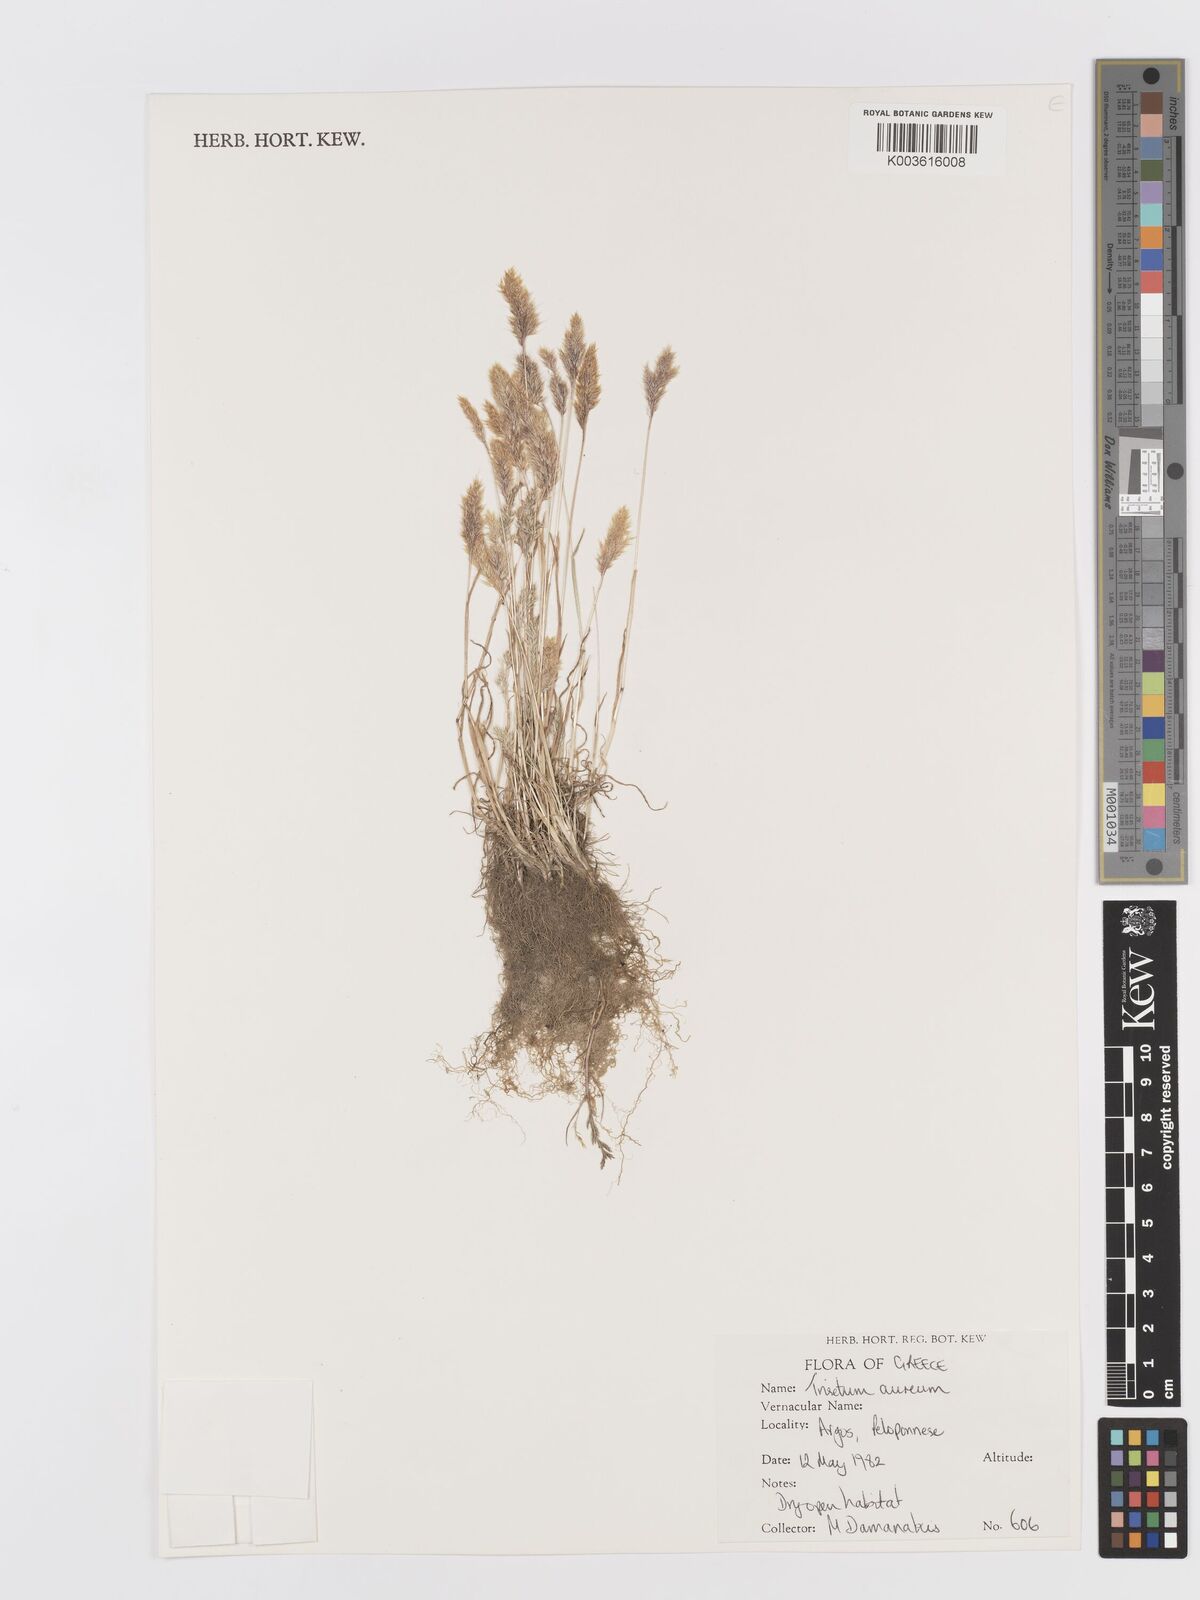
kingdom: Plantae
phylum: Tracheophyta
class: Liliopsida
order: Poales
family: Poaceae
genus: Trisetaria
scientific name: Trisetaria aurea
